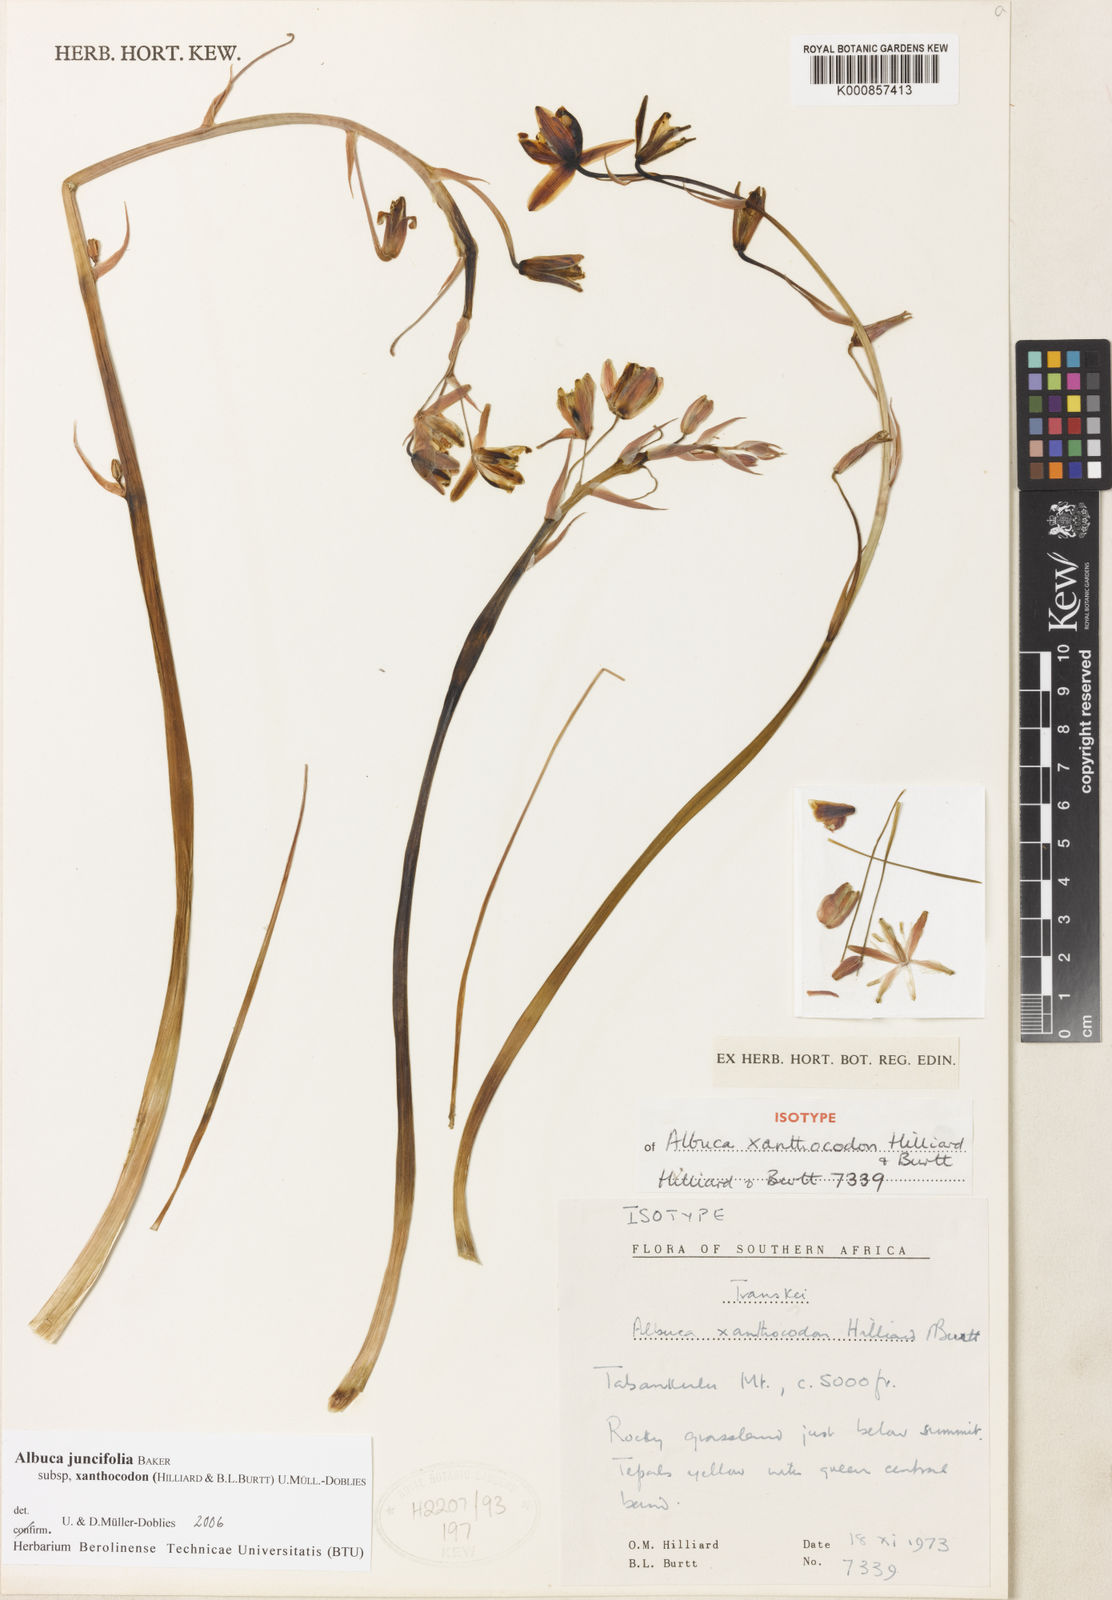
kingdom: Plantae
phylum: Tracheophyta
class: Liliopsida
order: Asparagales
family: Asparagaceae
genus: Albuca
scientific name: Albuca juncifolia
